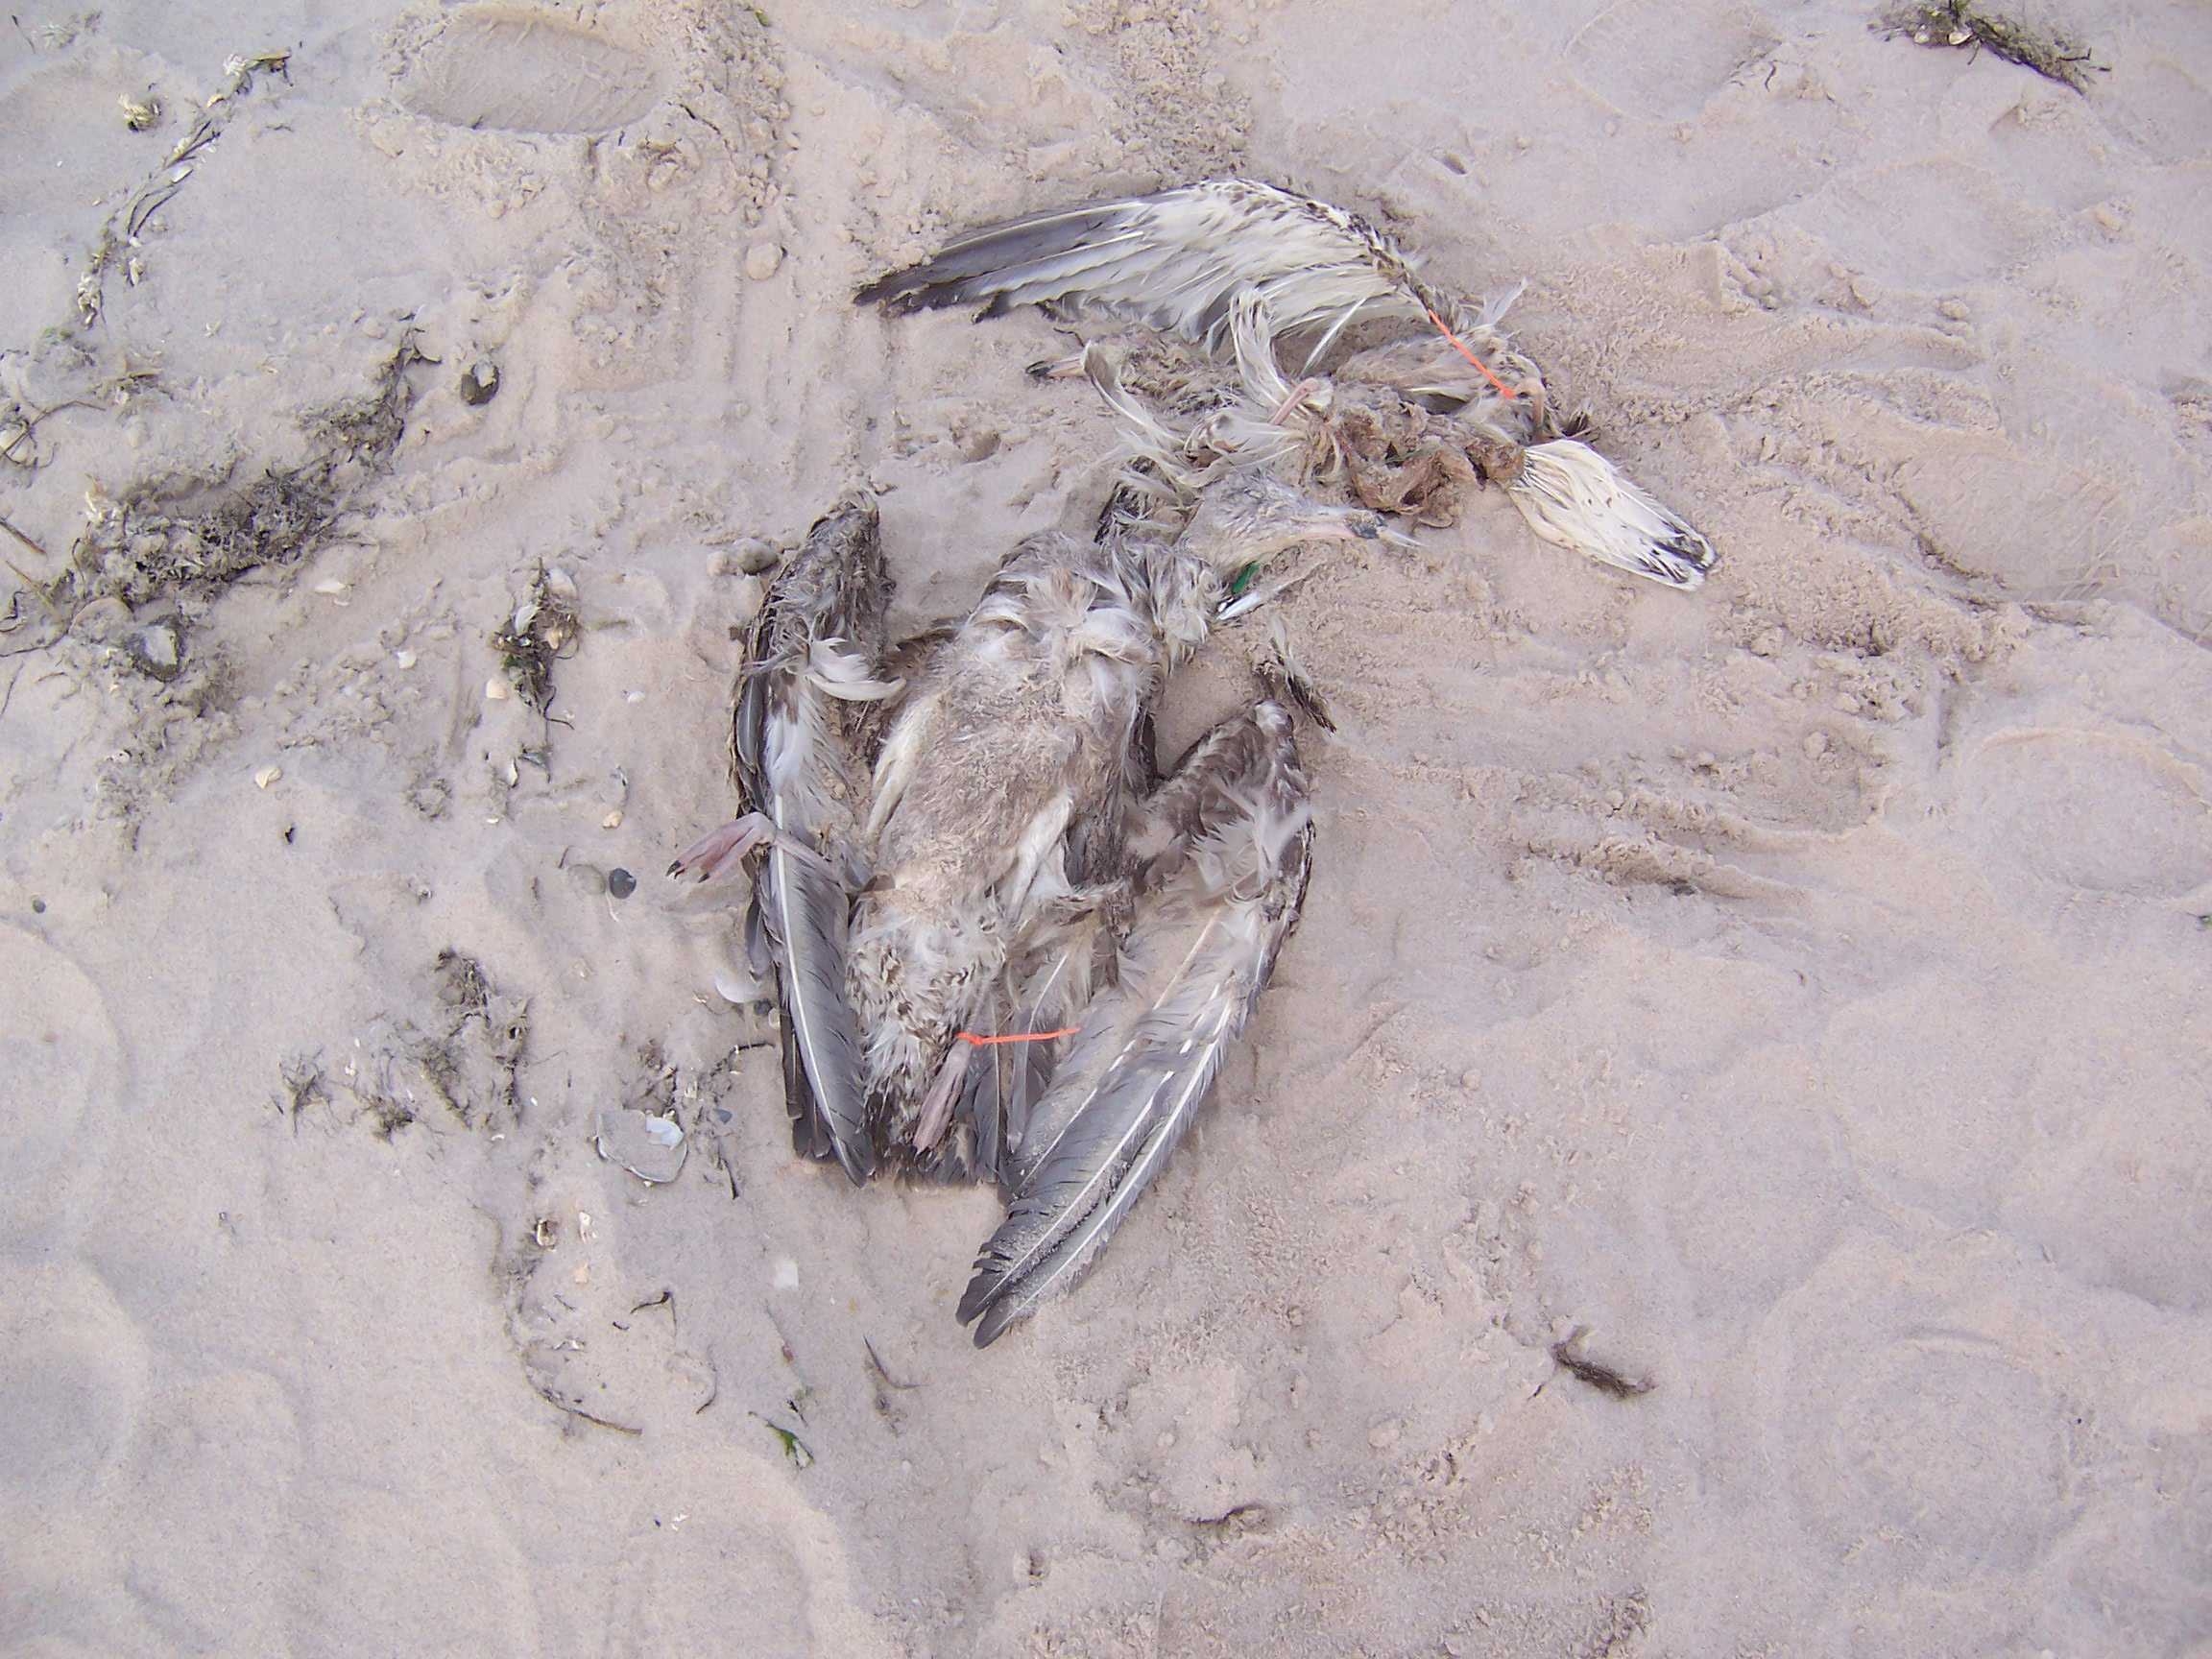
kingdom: Animalia
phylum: Chordata
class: Aves
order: Charadriiformes
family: Laridae
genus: Larus
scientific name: Larus marinus
